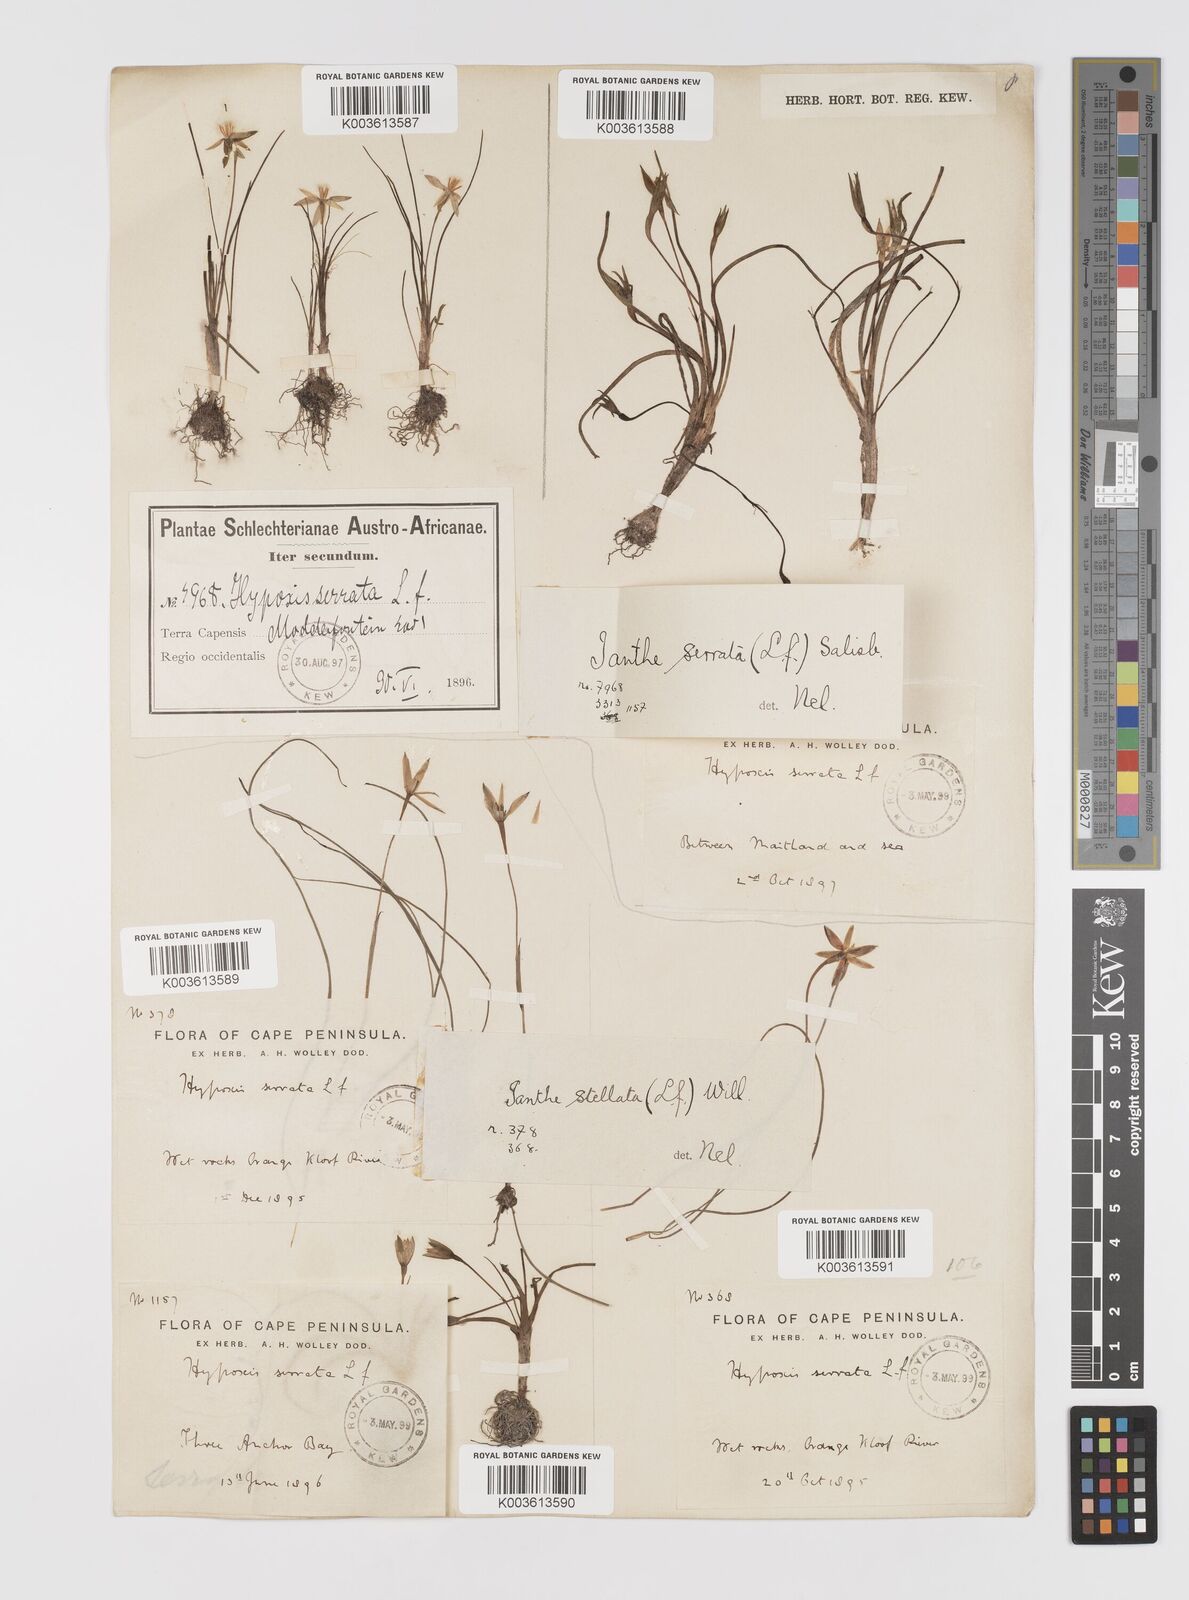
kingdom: Plantae
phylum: Tracheophyta
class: Liliopsida
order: Asparagales
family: Hypoxidaceae
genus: Pauridia
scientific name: Pauridia serrata
